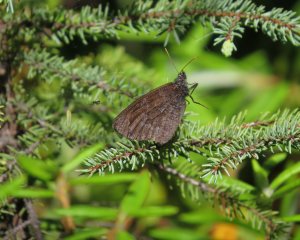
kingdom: Animalia
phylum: Arthropoda
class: Insecta
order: Lepidoptera
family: Nymphalidae
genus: Oeneis
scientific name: Oeneis jutta
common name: Jutta Arctic
